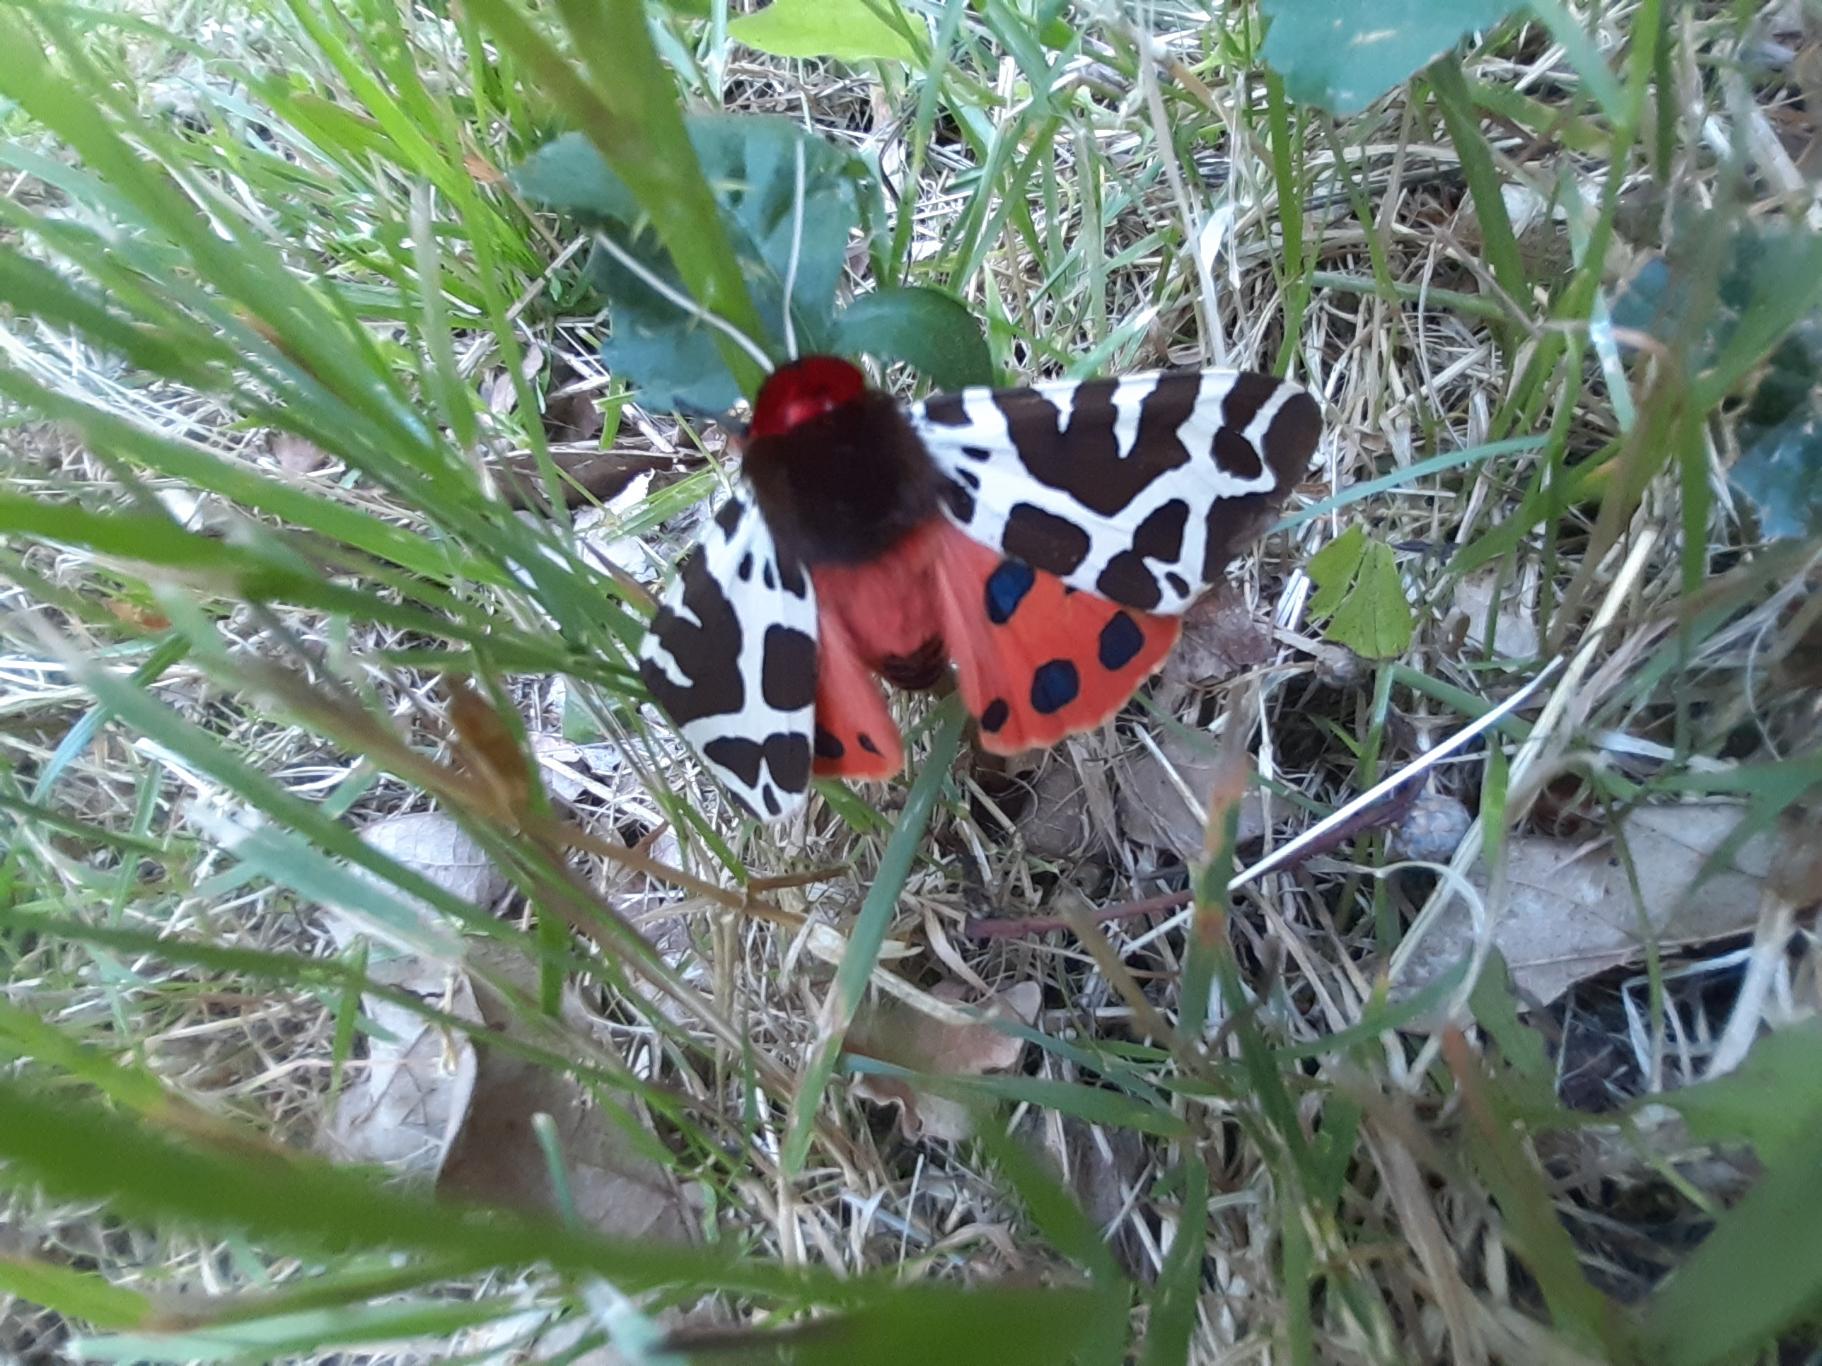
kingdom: Animalia
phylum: Arthropoda
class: Insecta
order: Lepidoptera
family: Erebidae
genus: Arctia
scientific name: Arctia caja
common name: Brun bjørn
